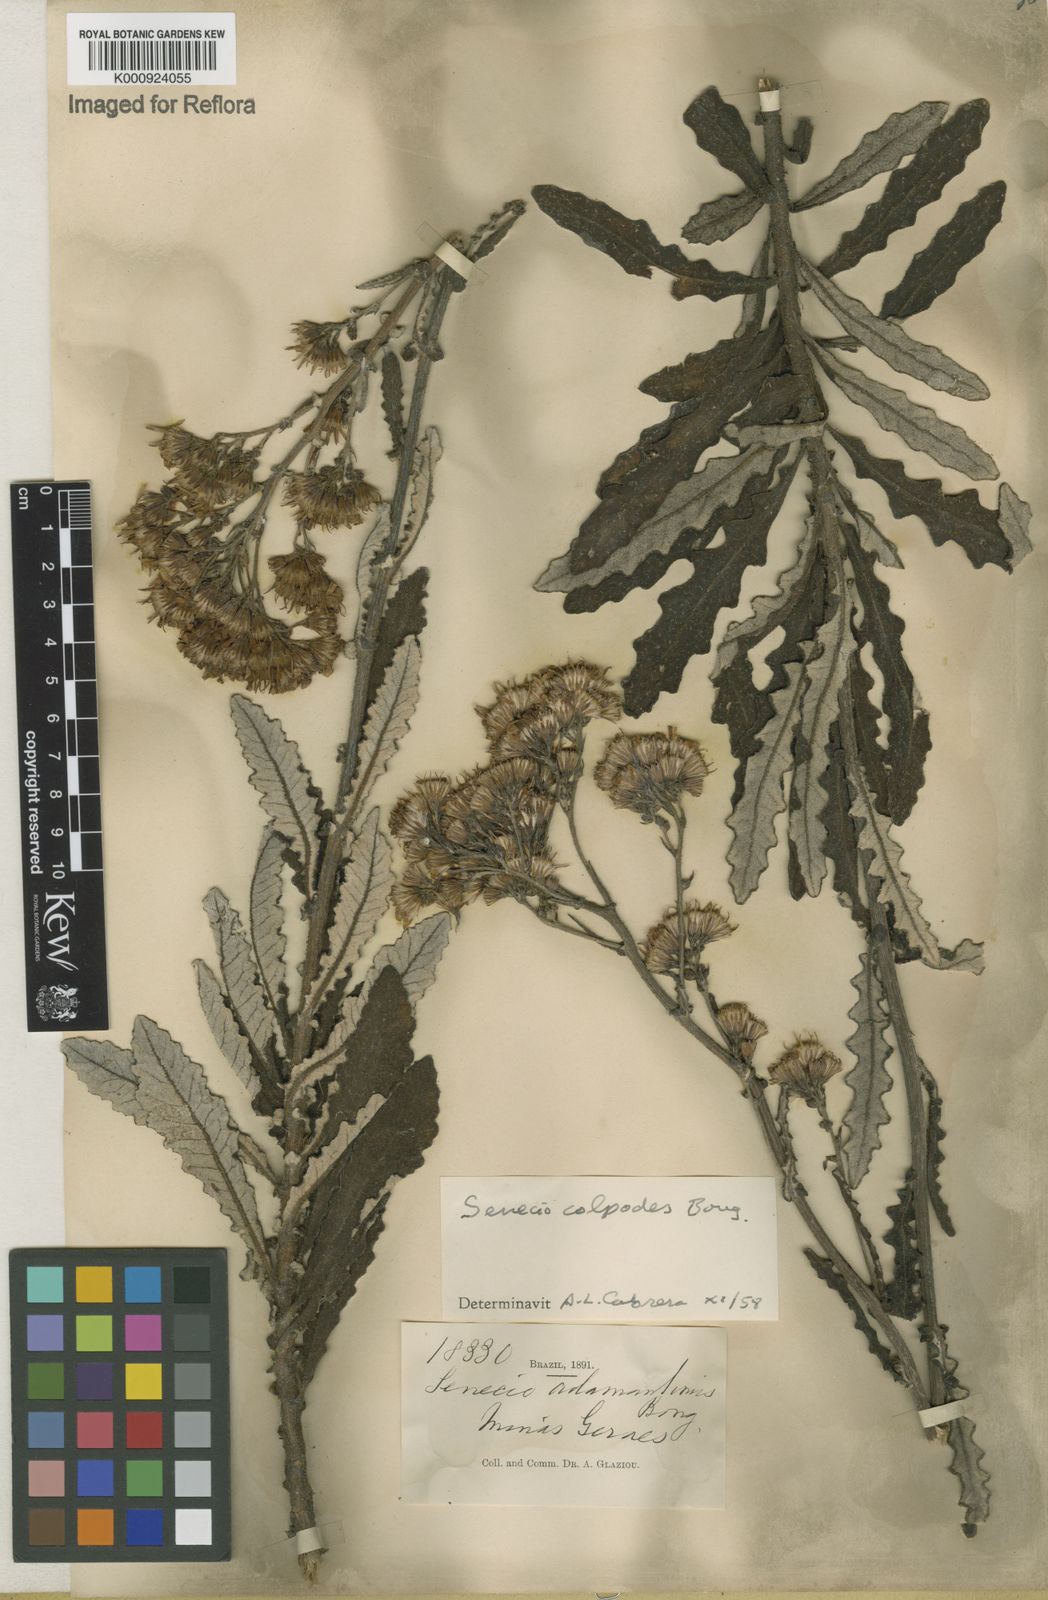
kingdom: Plantae
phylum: Tracheophyta
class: Magnoliopsida
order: Asterales
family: Asteraceae
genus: Senecio
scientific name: Senecio colpodes
